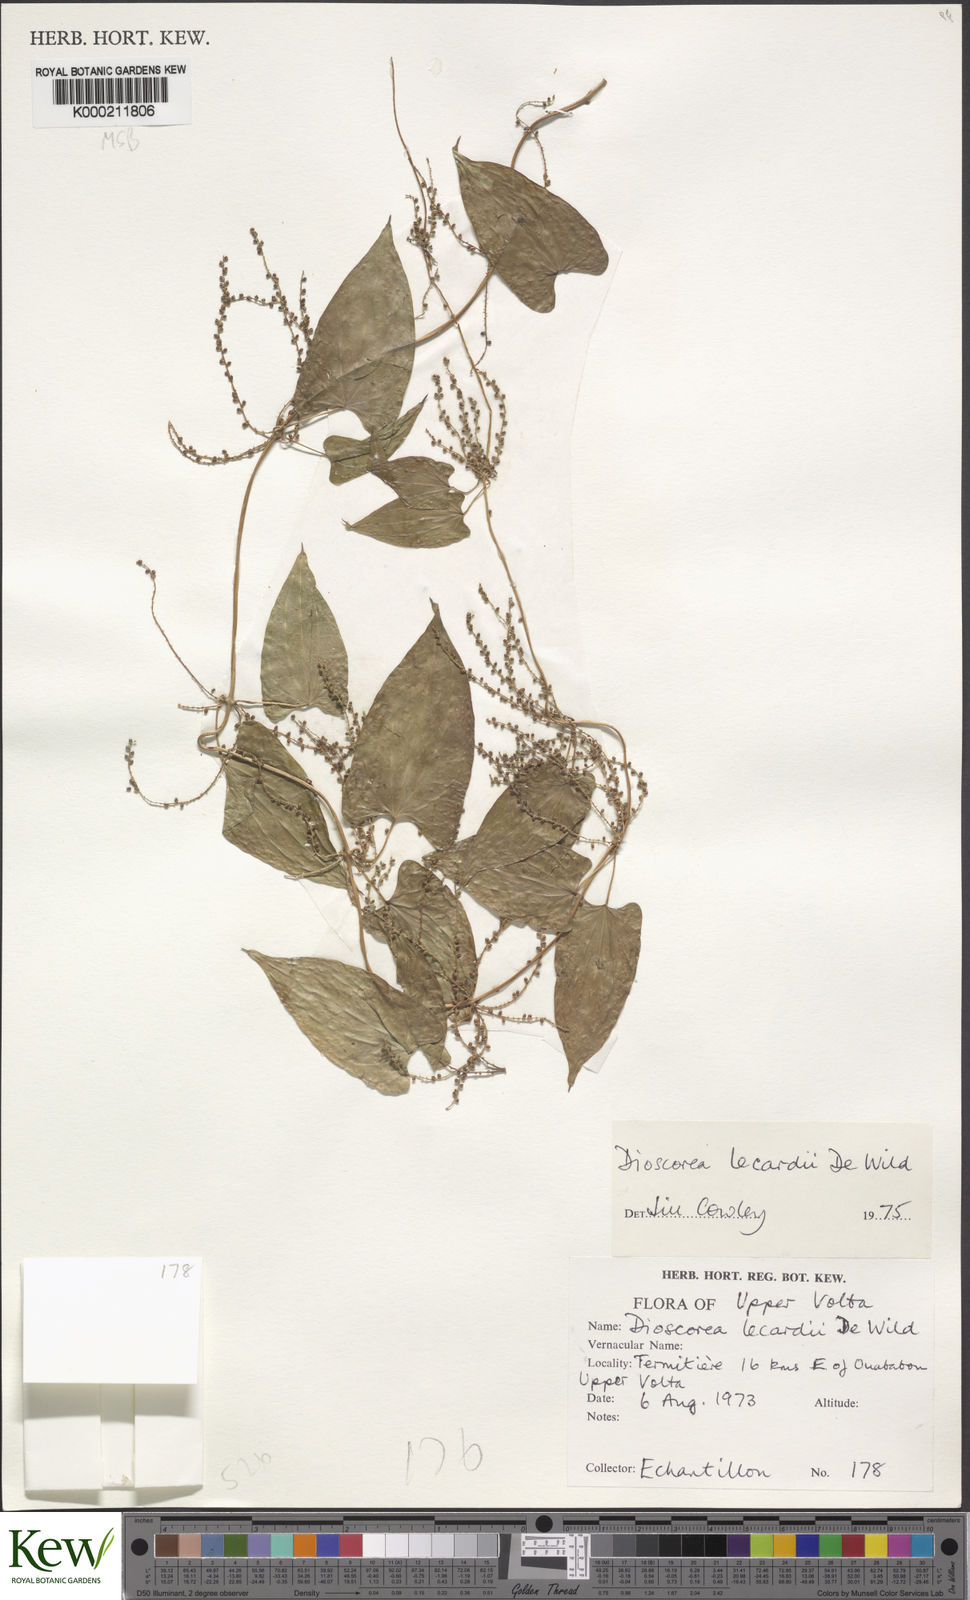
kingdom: Plantae
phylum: Tracheophyta
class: Liliopsida
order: Dioscoreales
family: Dioscoreaceae
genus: Dioscorea
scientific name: Dioscorea sagittifolia
